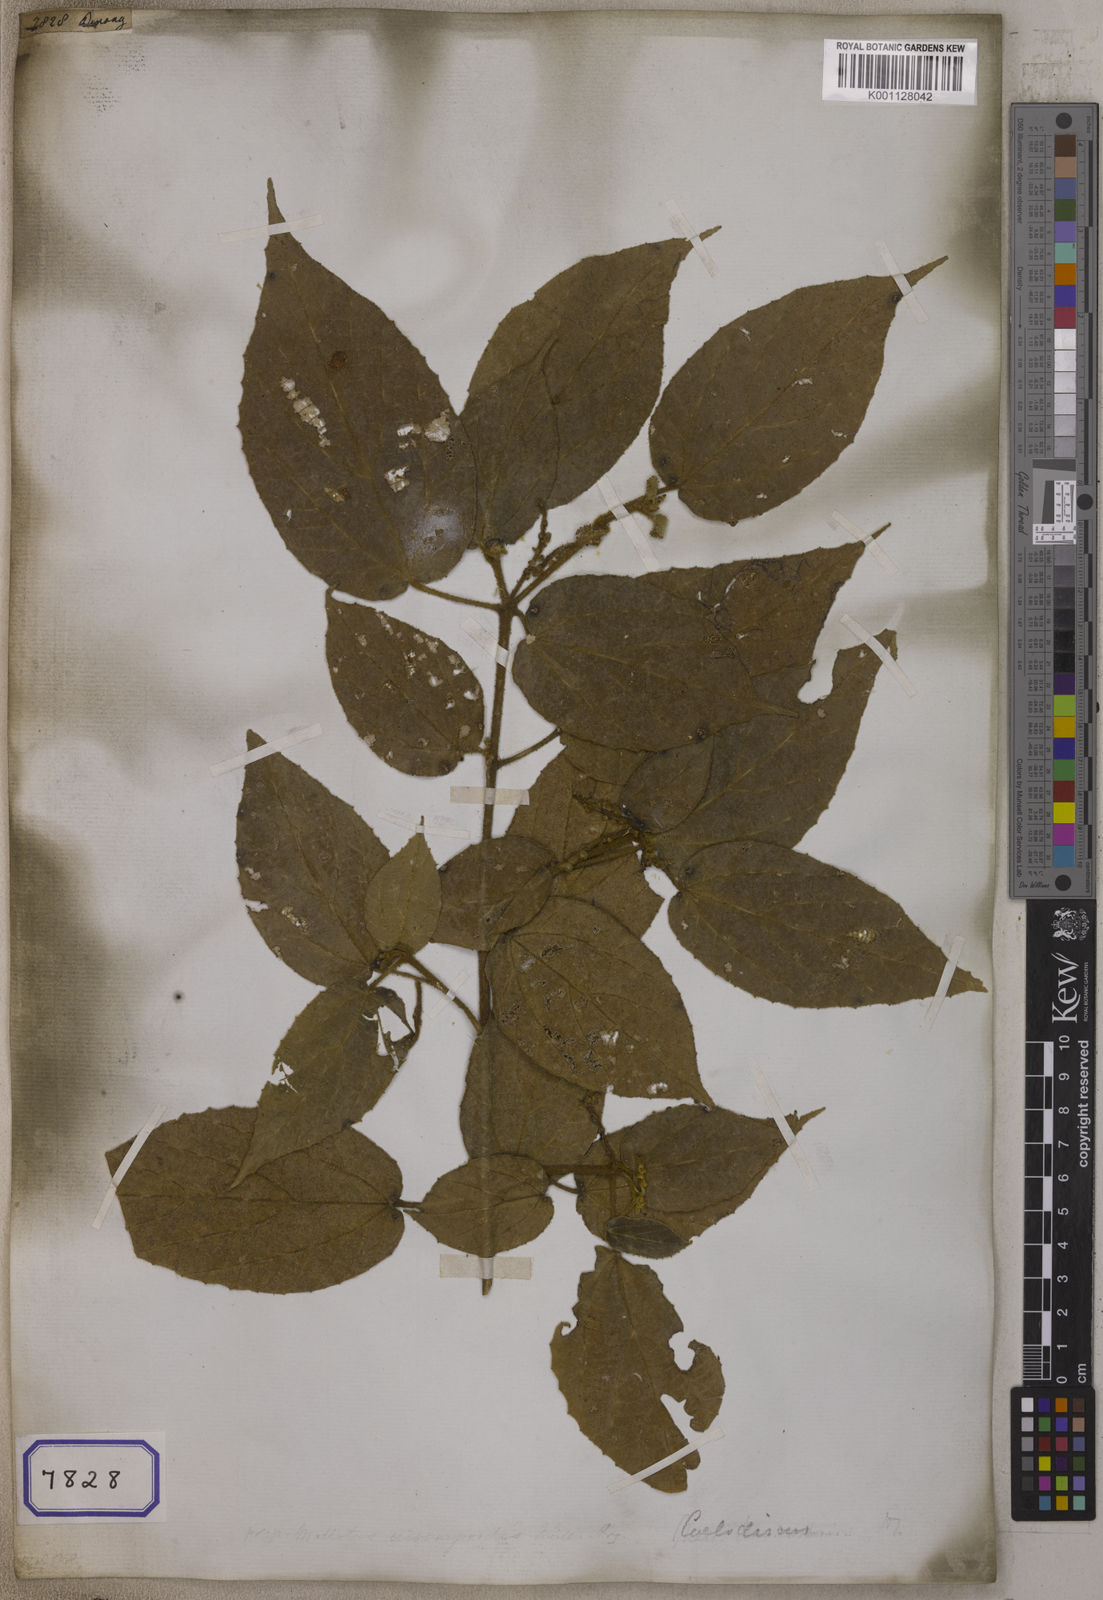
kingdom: Plantae
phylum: Tracheophyta
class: Magnoliopsida
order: Malpighiales
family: Euphorbiaceae
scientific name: Euphorbiaceae
